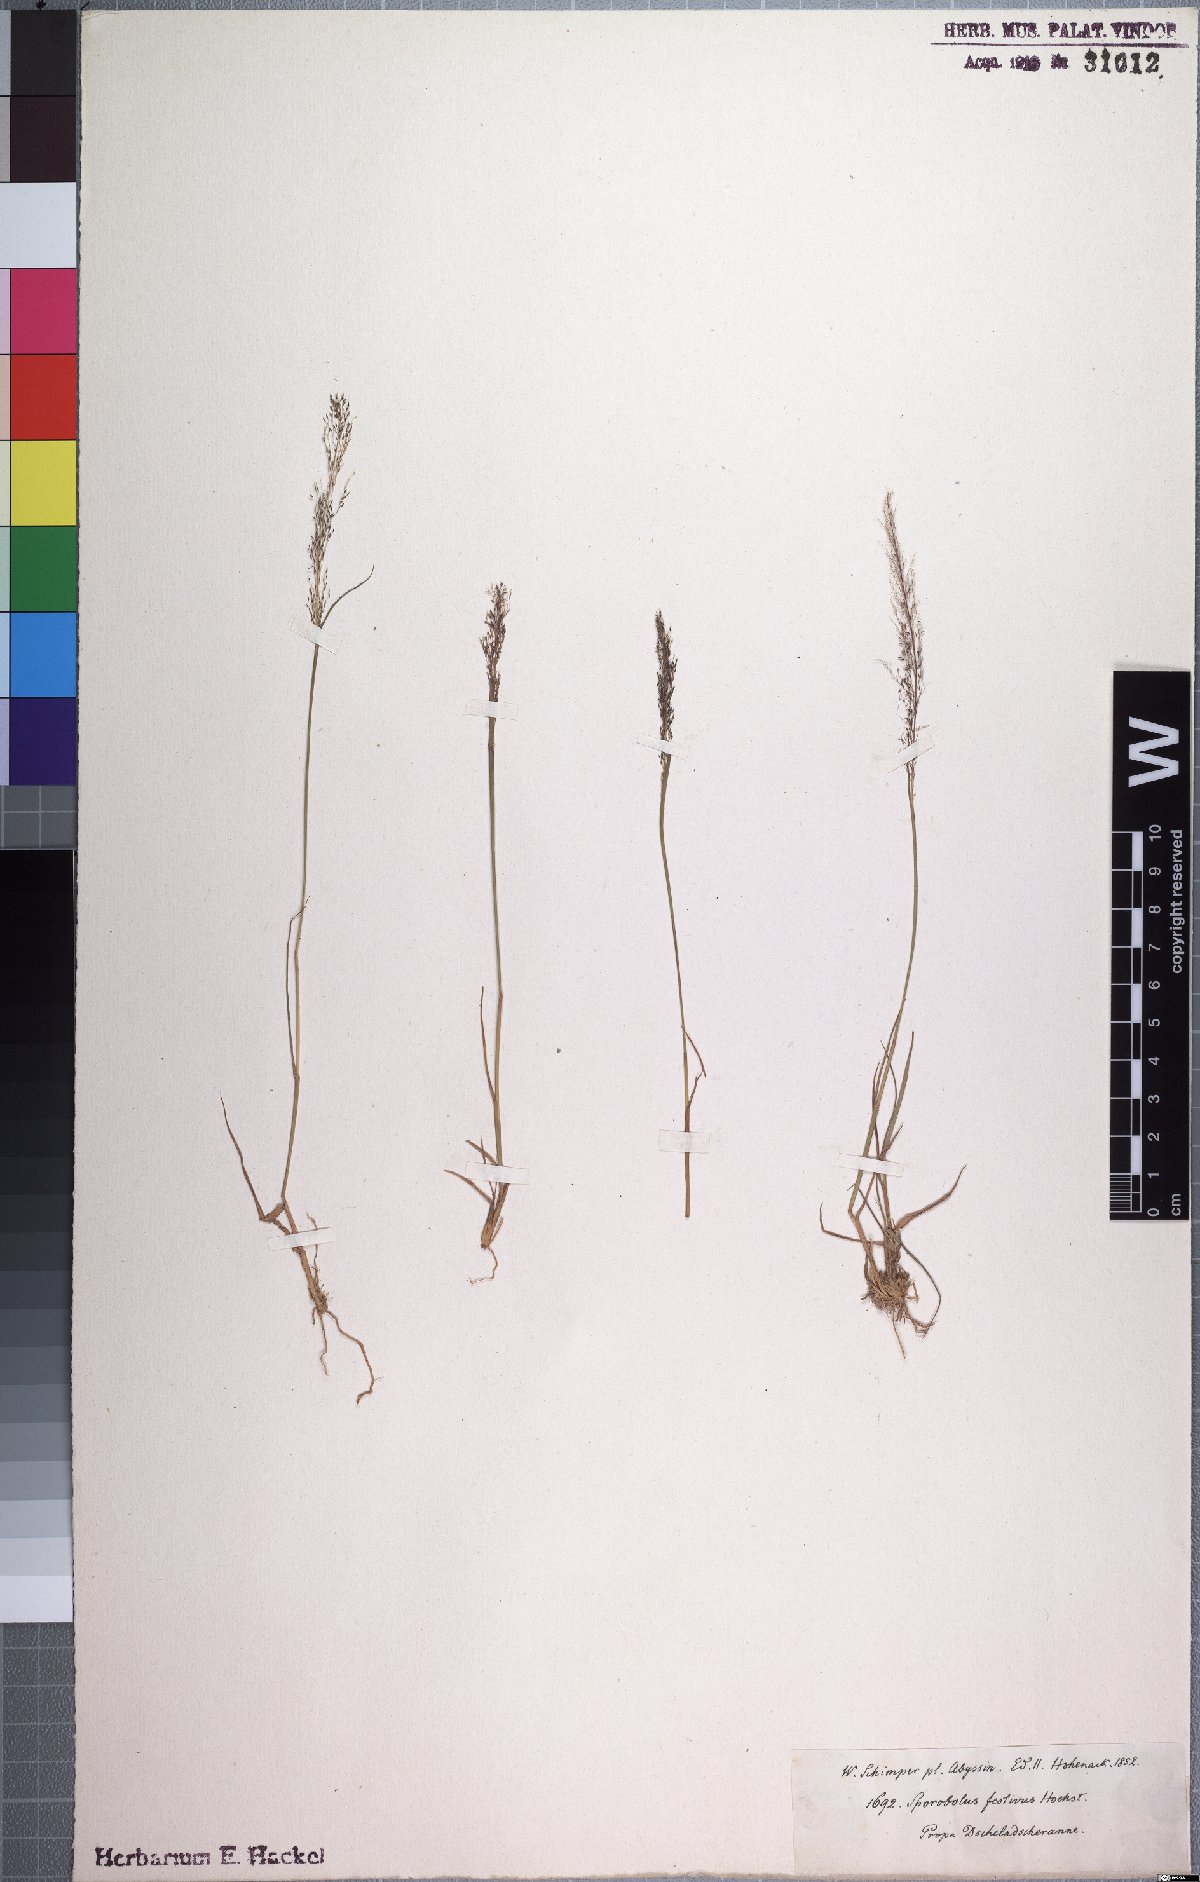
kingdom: Plantae
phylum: Tracheophyta
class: Liliopsida
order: Poales
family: Poaceae
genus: Sporobolus
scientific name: Sporobolus festivus
